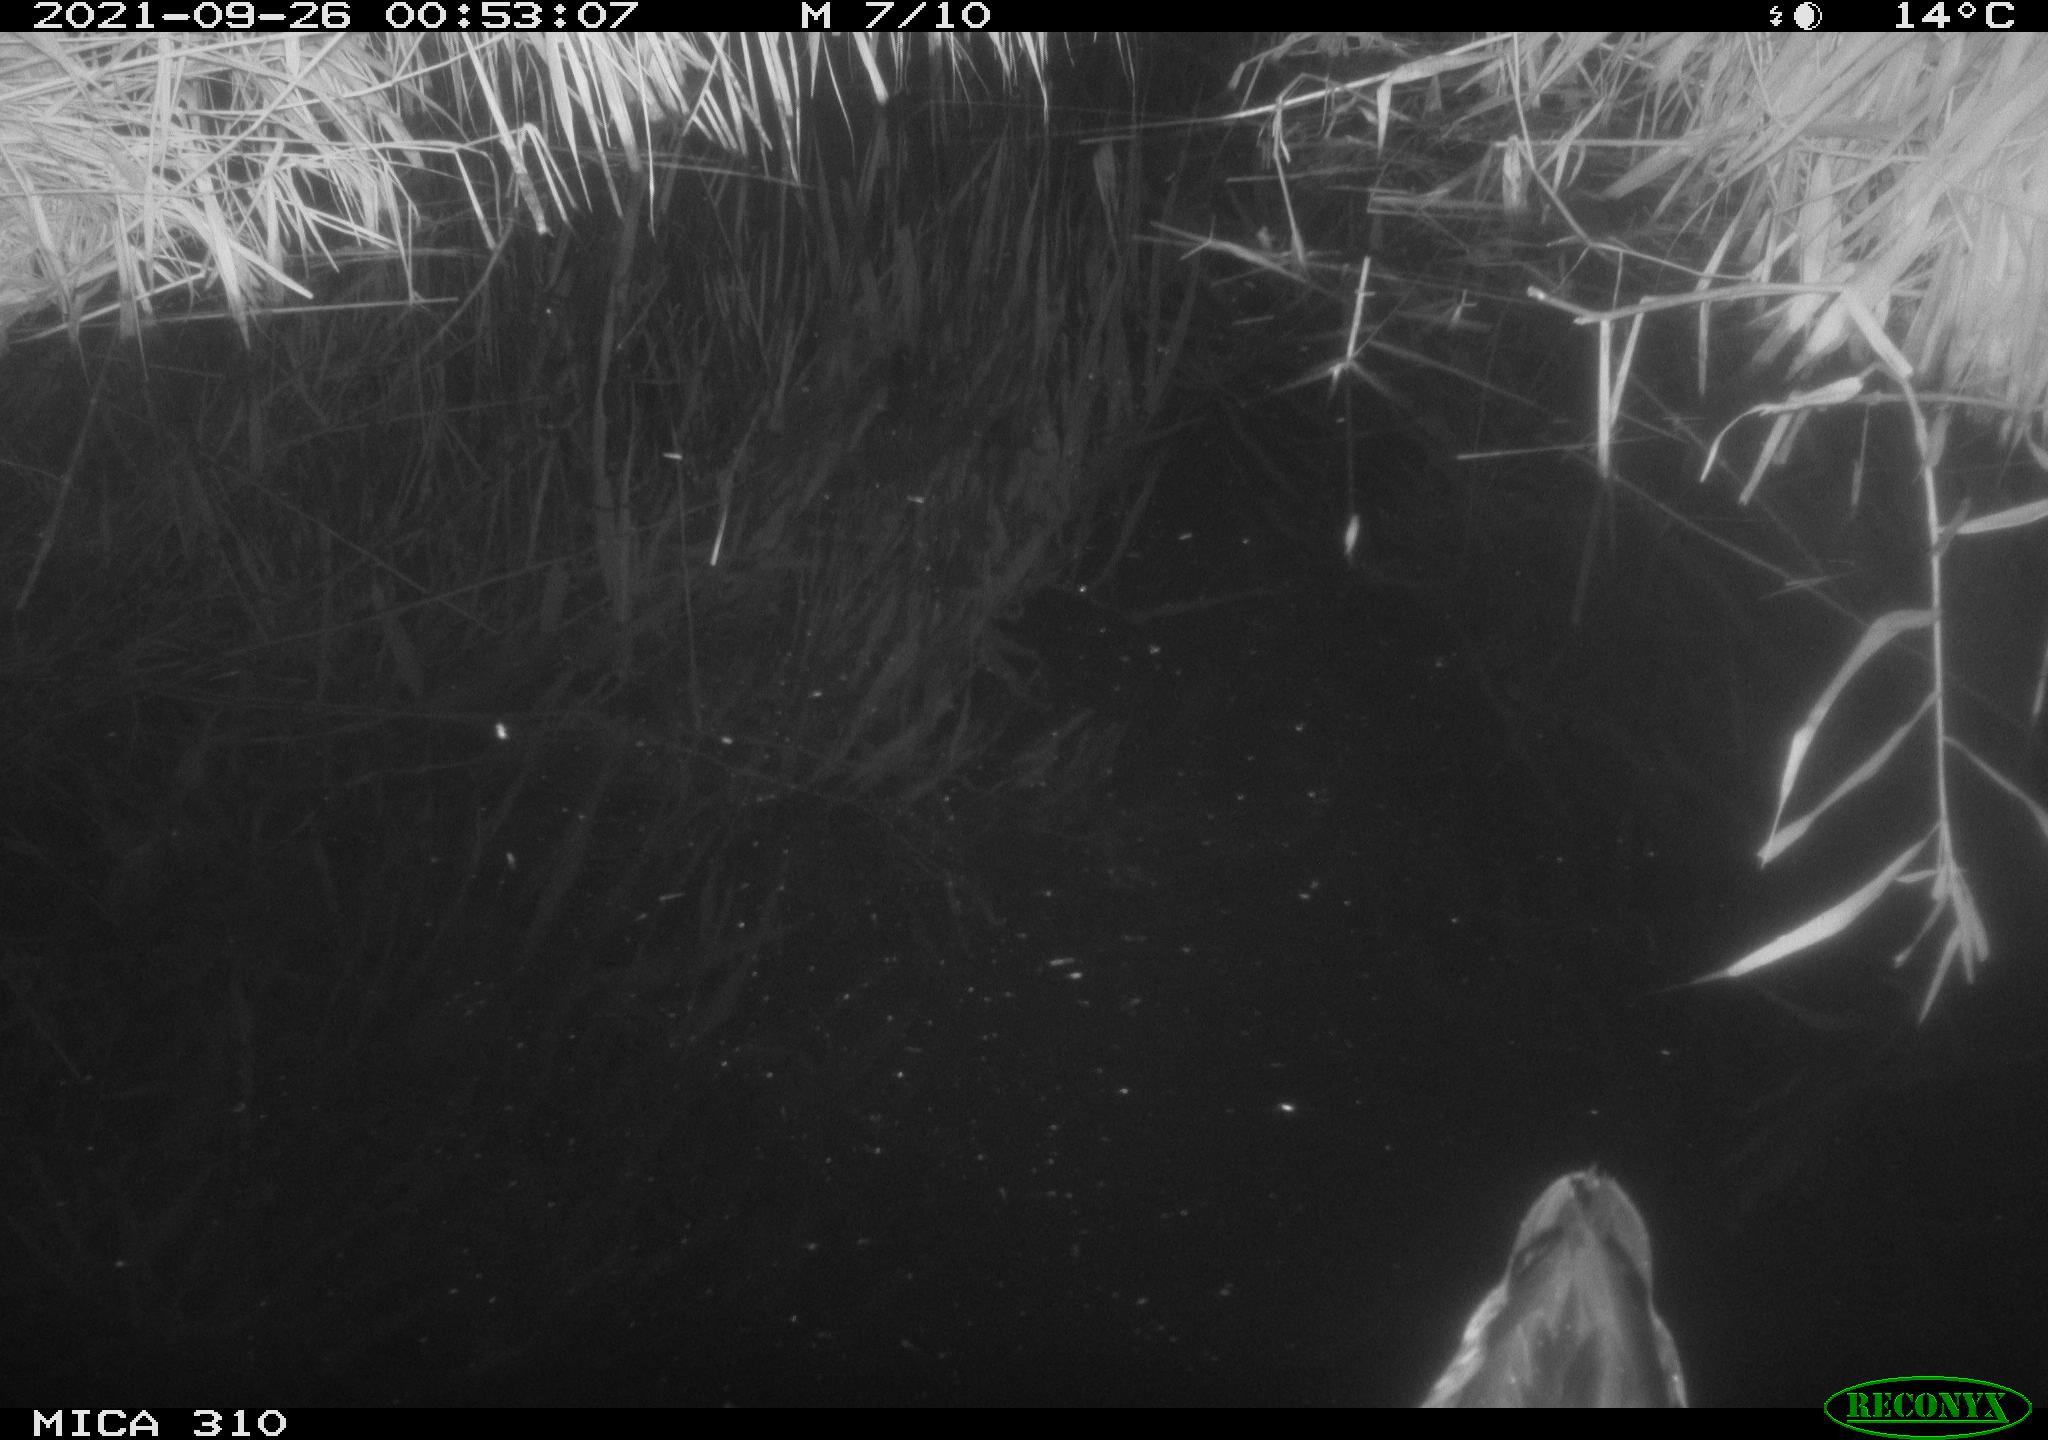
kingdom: Animalia
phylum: Chordata
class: Aves
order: Anseriformes
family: Anatidae
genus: Anas
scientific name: Anas platyrhynchos
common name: Mallard
